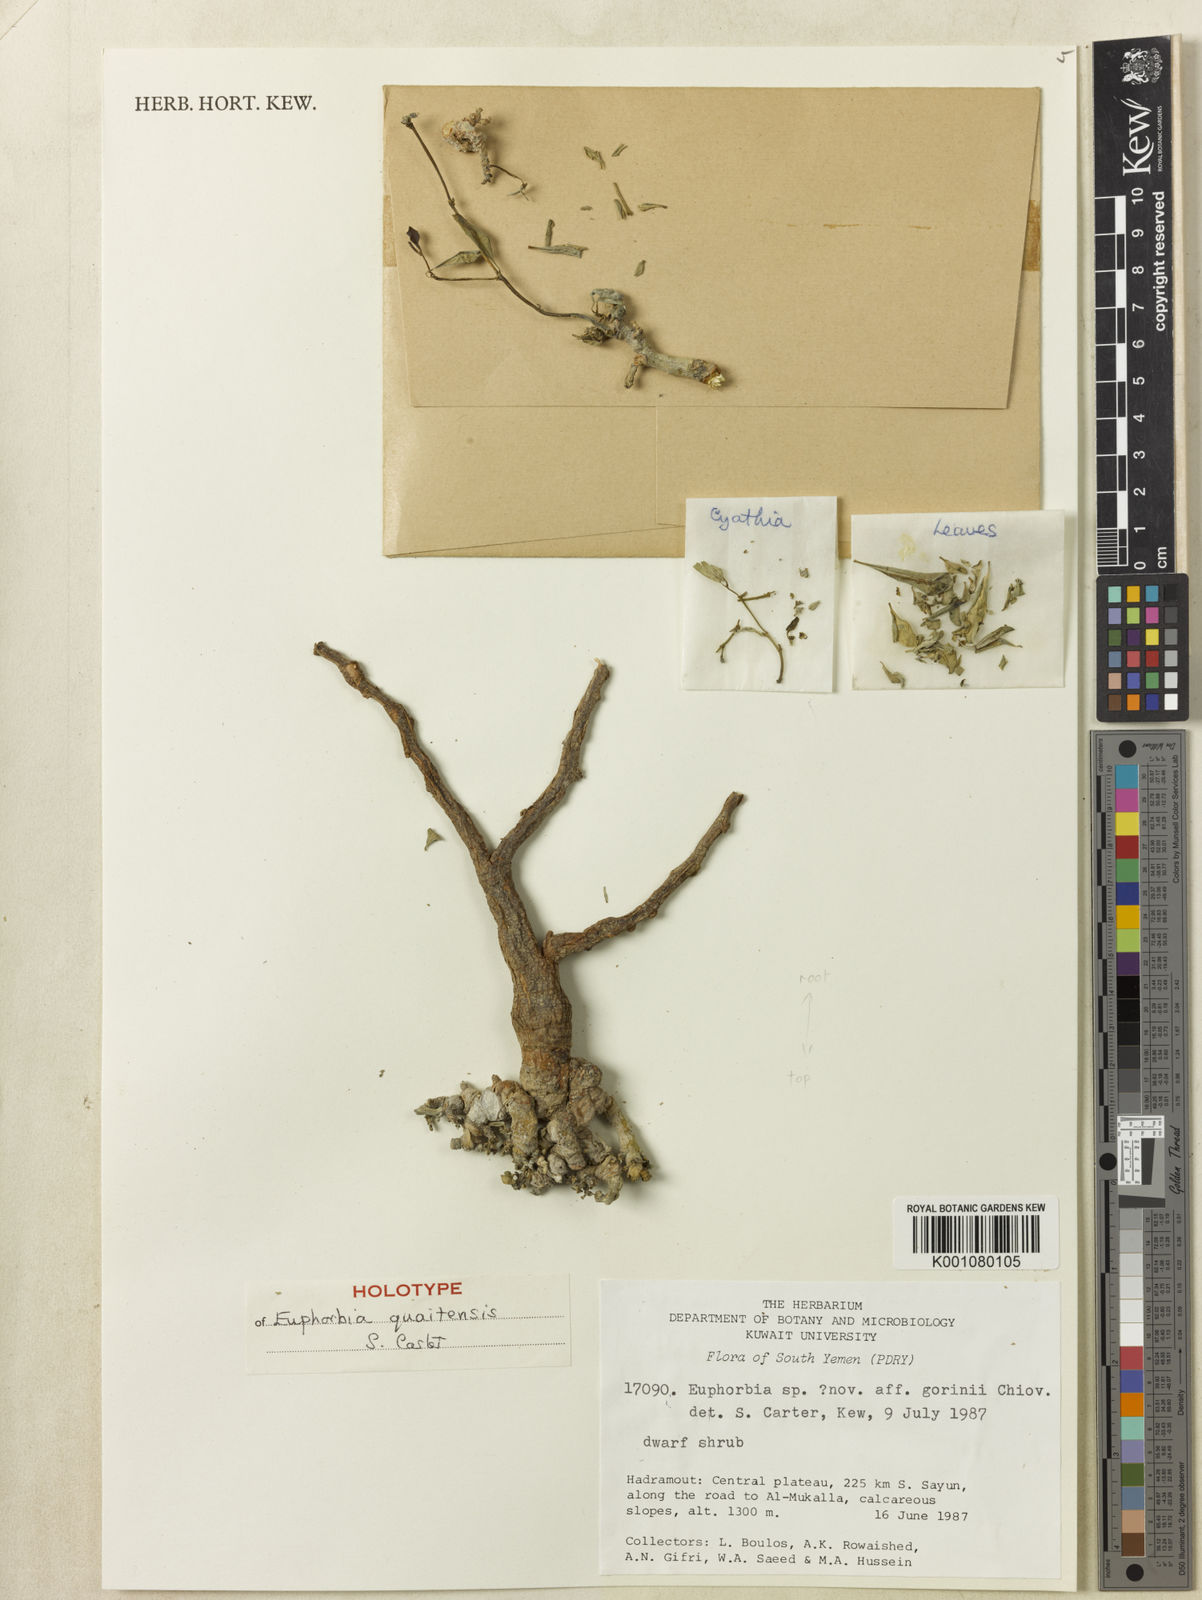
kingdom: Plantae
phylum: Tracheophyta
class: Magnoliopsida
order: Malpighiales
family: Euphorbiaceae
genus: Euphorbia
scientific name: Euphorbia quaitensis
